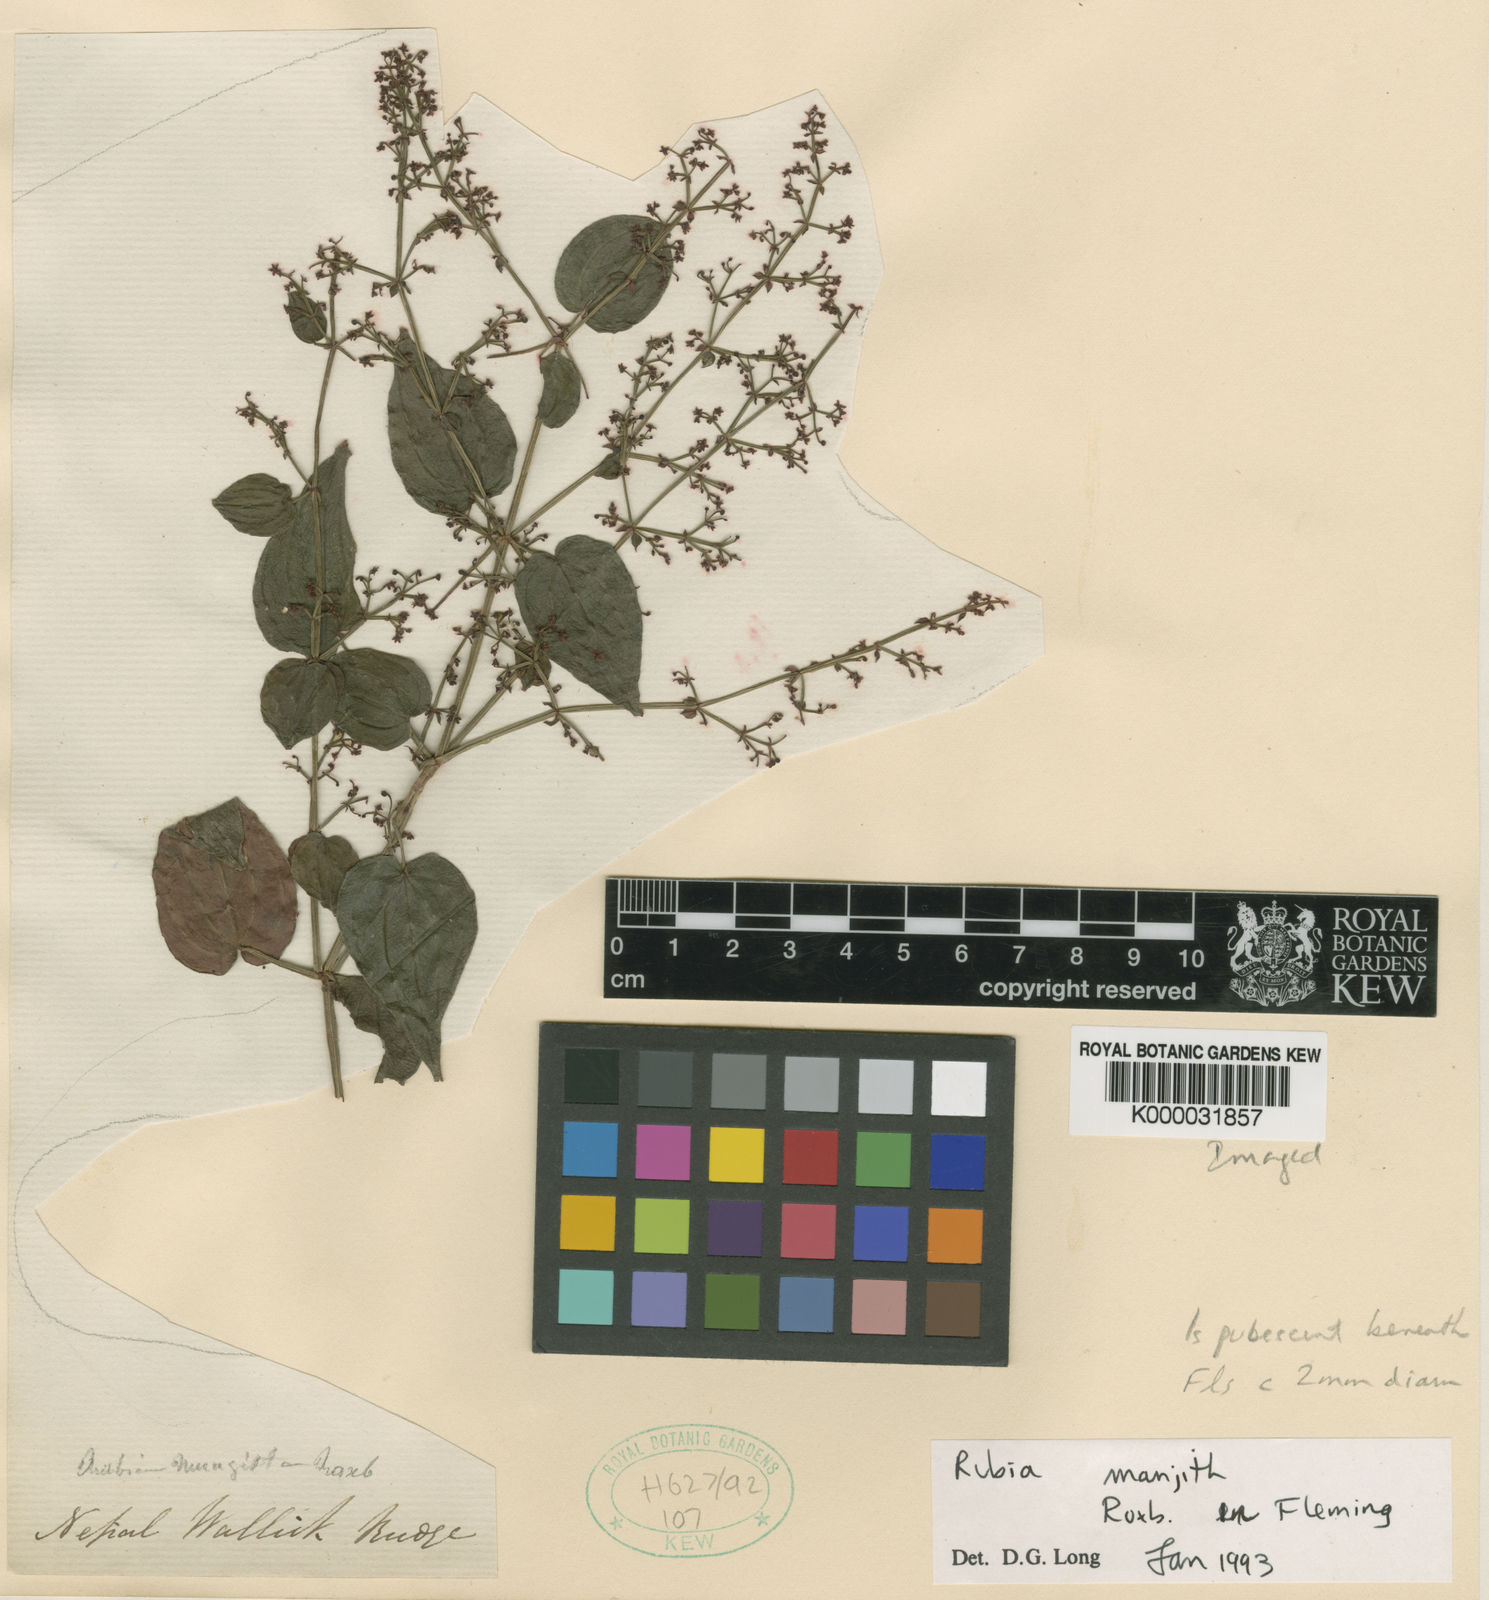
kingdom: Plantae
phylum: Tracheophyta
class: Magnoliopsida
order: Gentianales
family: Rubiaceae
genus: Rubia
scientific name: Rubia
